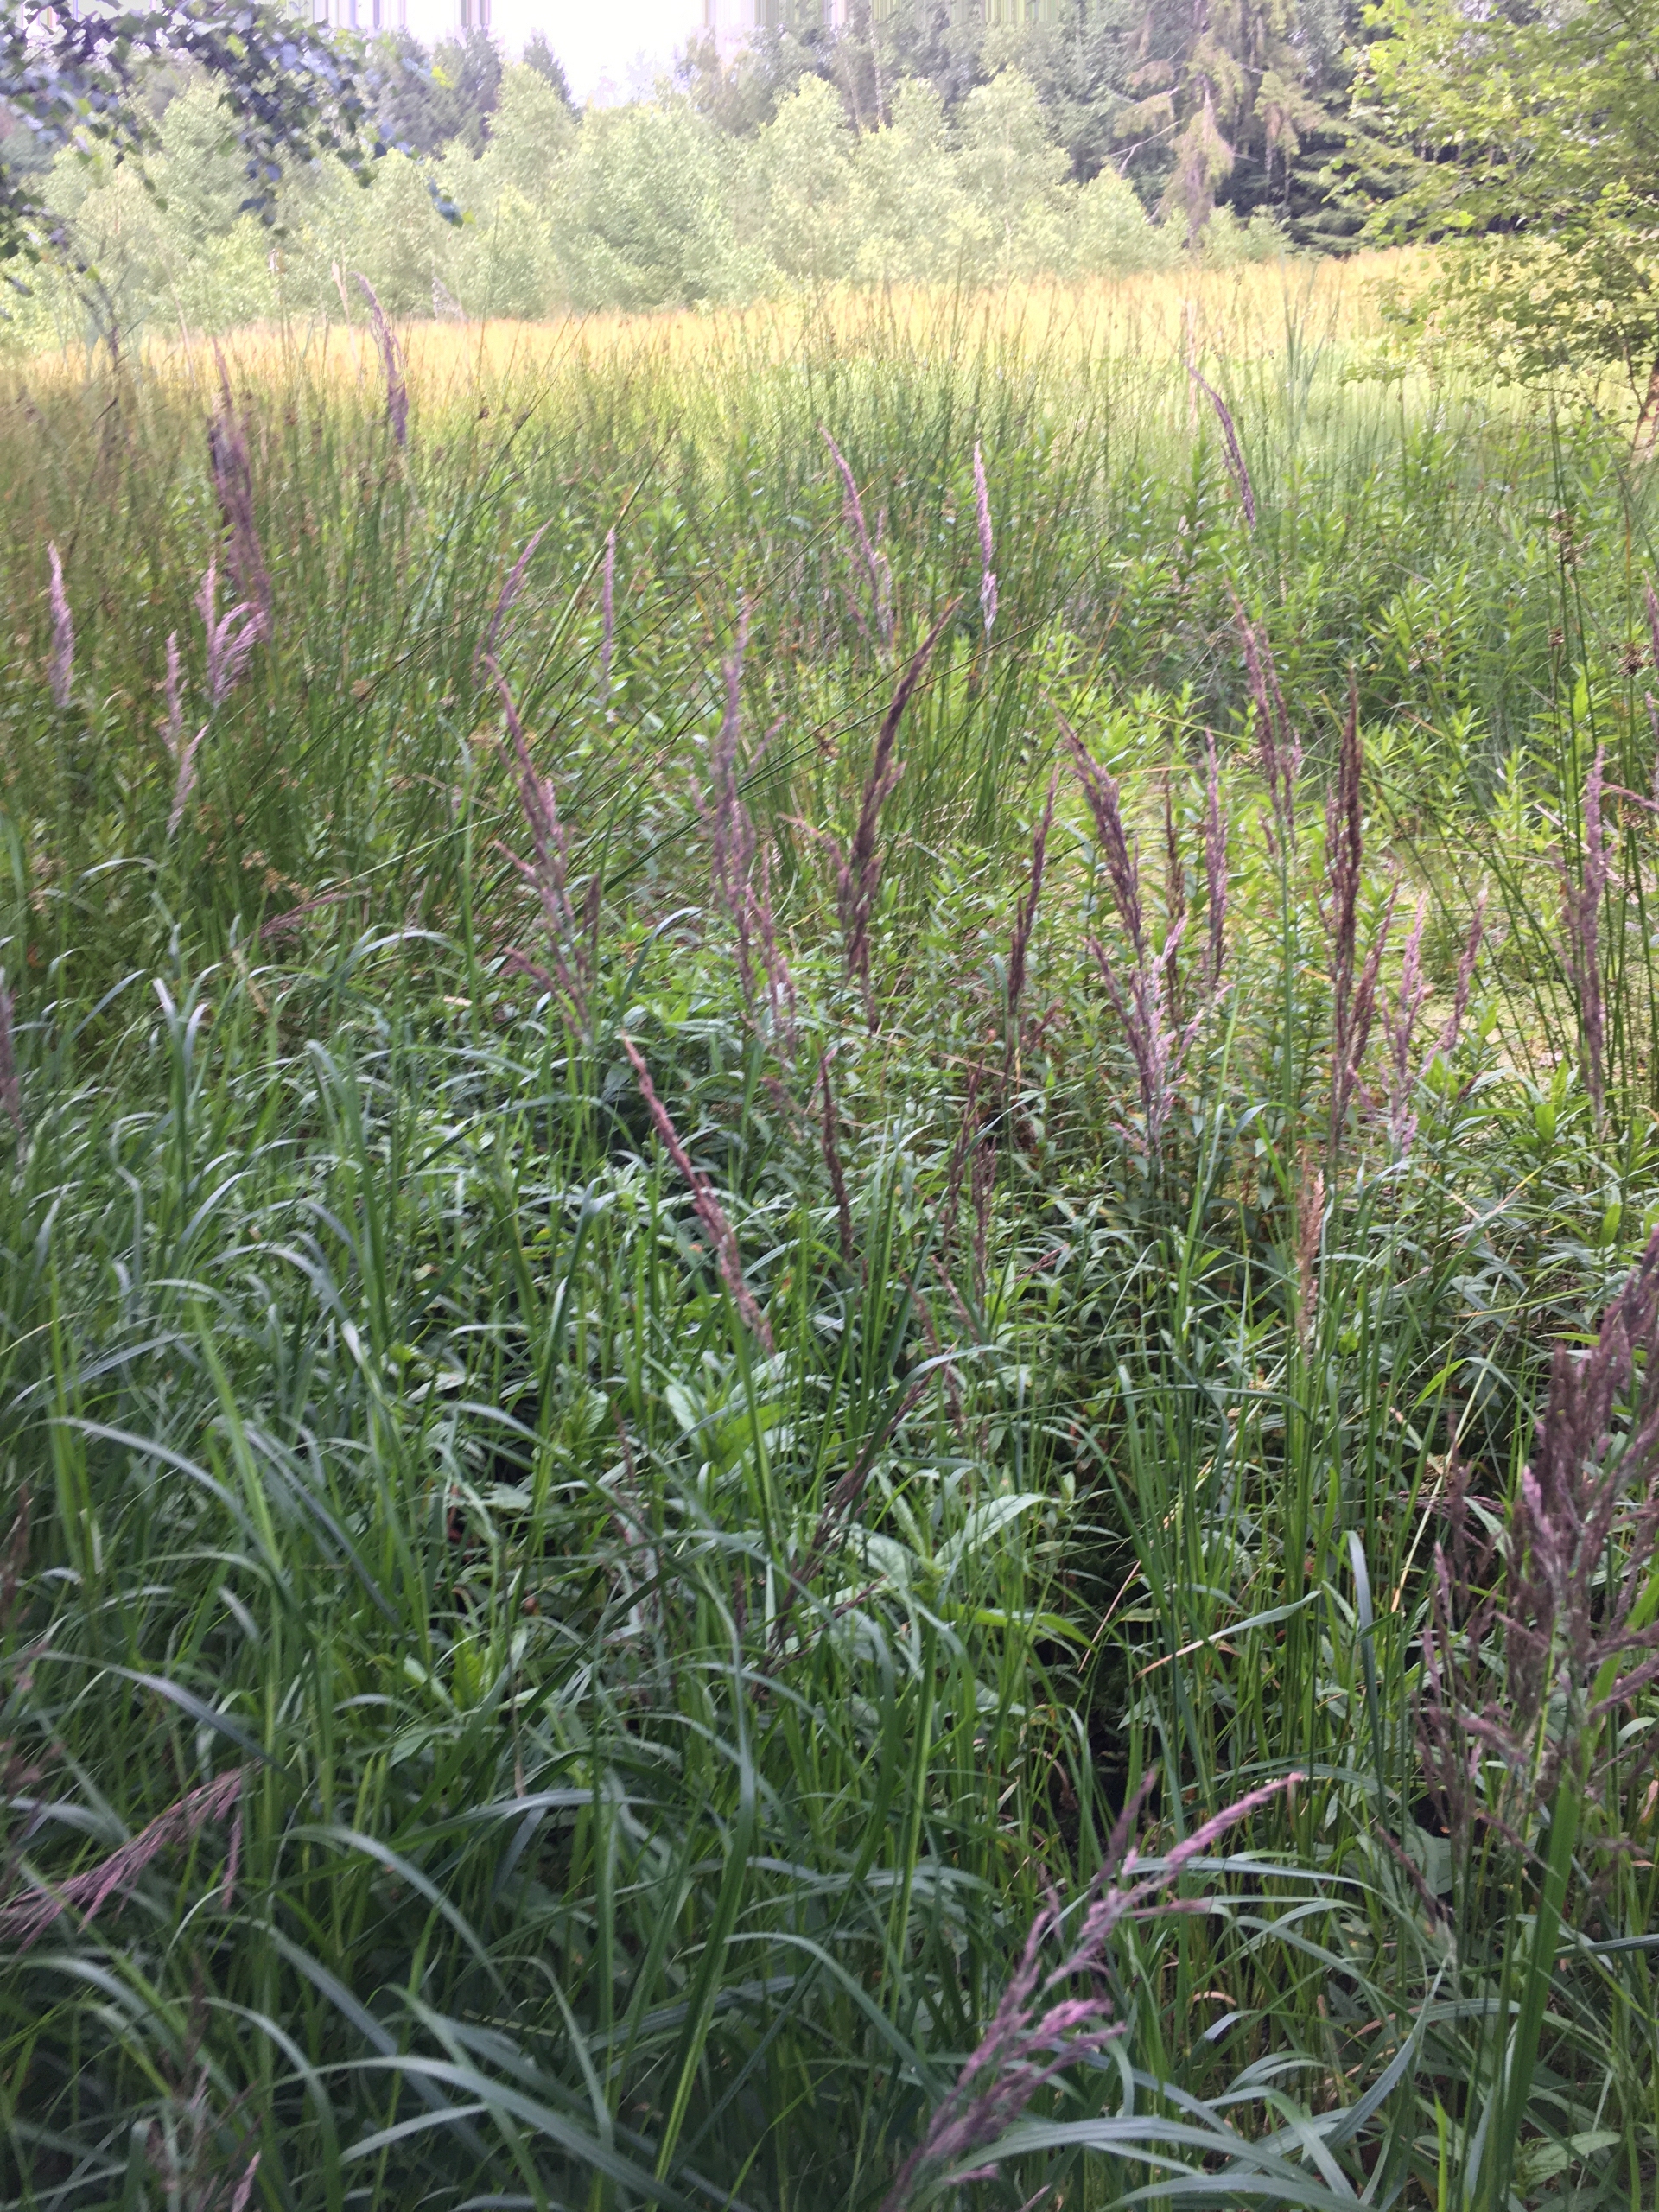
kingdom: Plantae
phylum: Tracheophyta
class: Liliopsida
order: Poales
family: Poaceae
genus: Calamagrostis
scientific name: Calamagrostis canescens
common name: Eng-rørhvene
